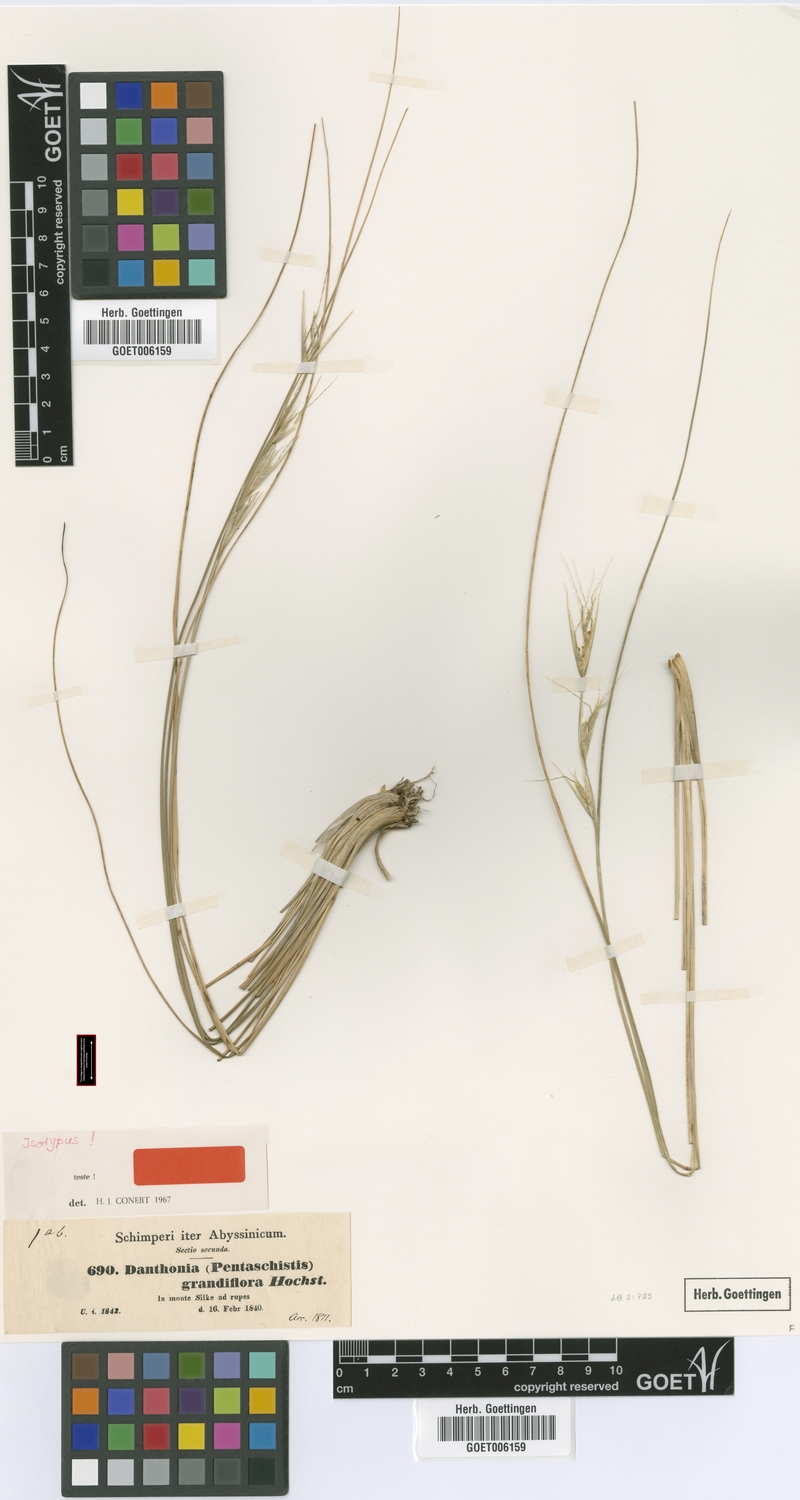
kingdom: Plantae
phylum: Tracheophyta
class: Liliopsida
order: Poales
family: Poaceae
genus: Merxmuellera
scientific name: Merxmuellera grandiflora
